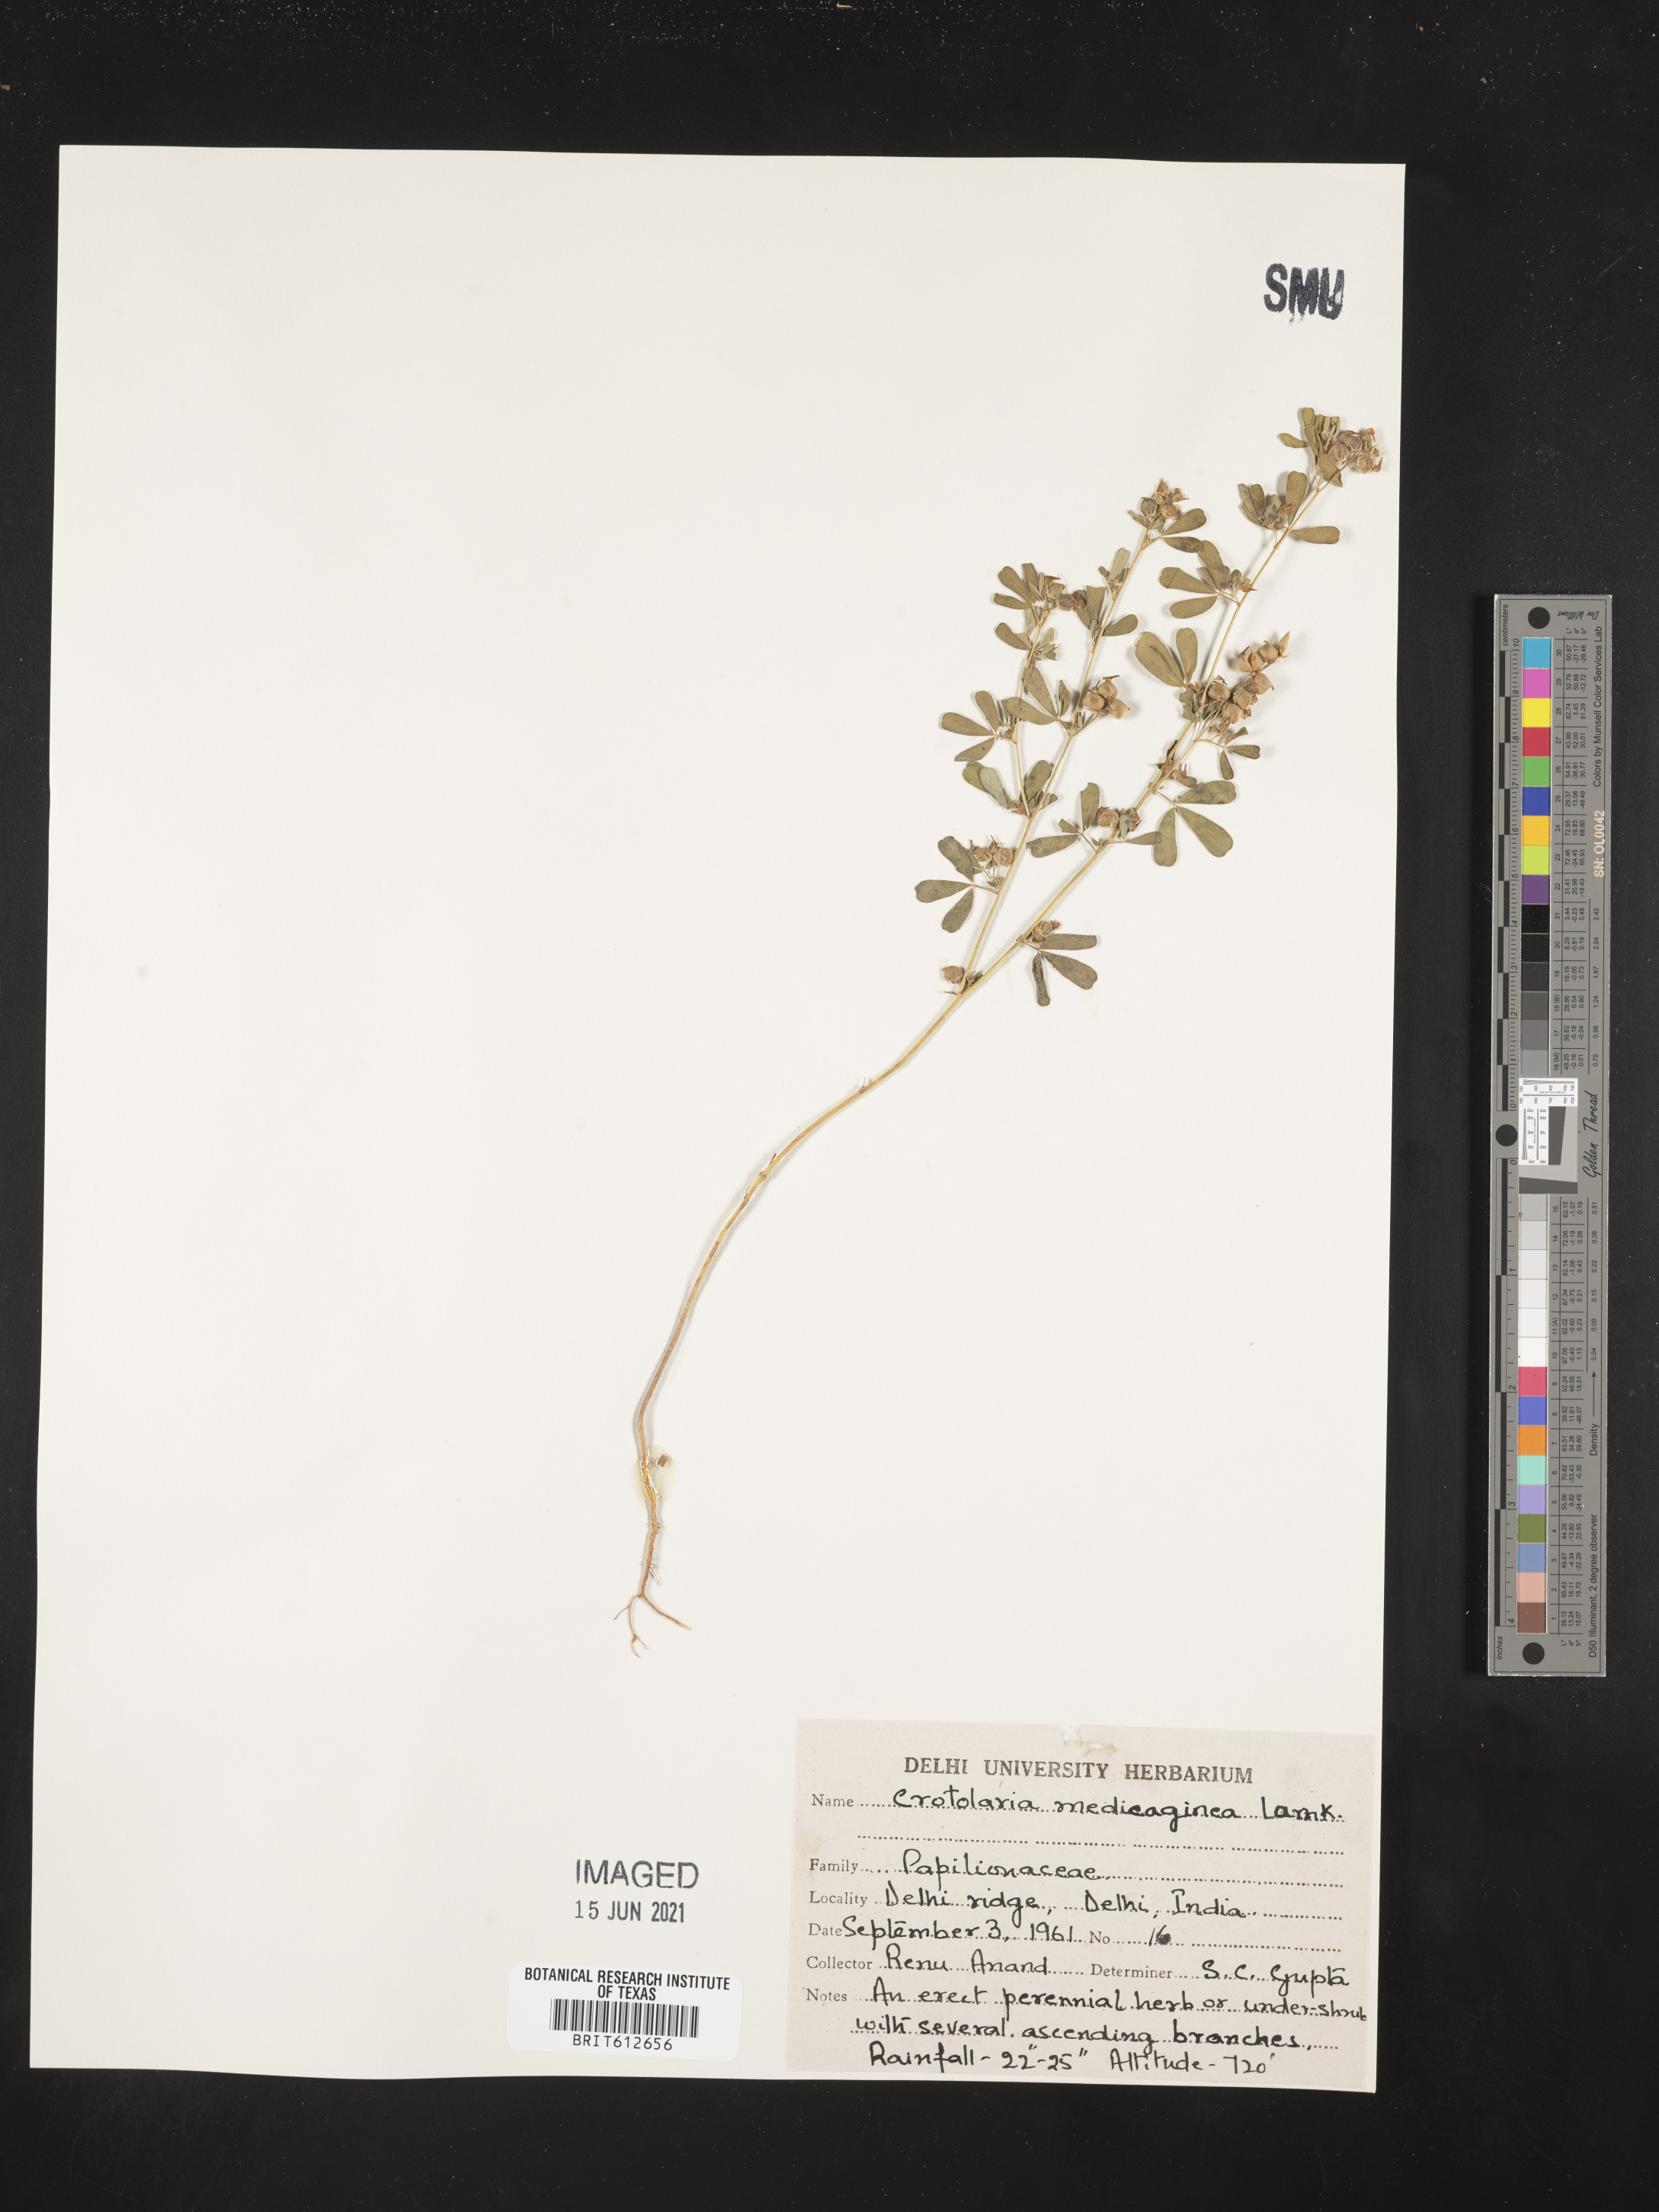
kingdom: Plantae
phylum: Tracheophyta
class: Magnoliopsida
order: Fabales
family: Fabaceae
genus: Crotalaria
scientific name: Crotalaria medicaginea
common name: Trefoil rattlepod
